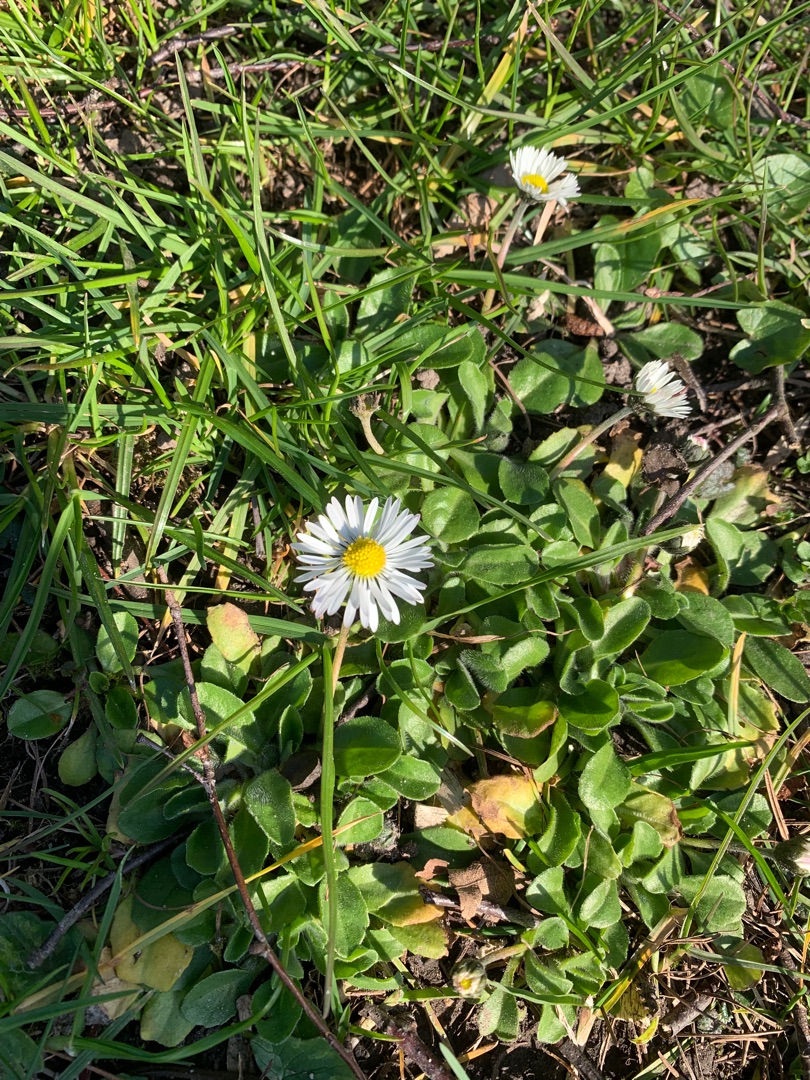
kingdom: Plantae
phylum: Tracheophyta
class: Magnoliopsida
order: Asterales
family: Asteraceae
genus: Bellis
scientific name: Bellis perennis
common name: Tusindfryd
